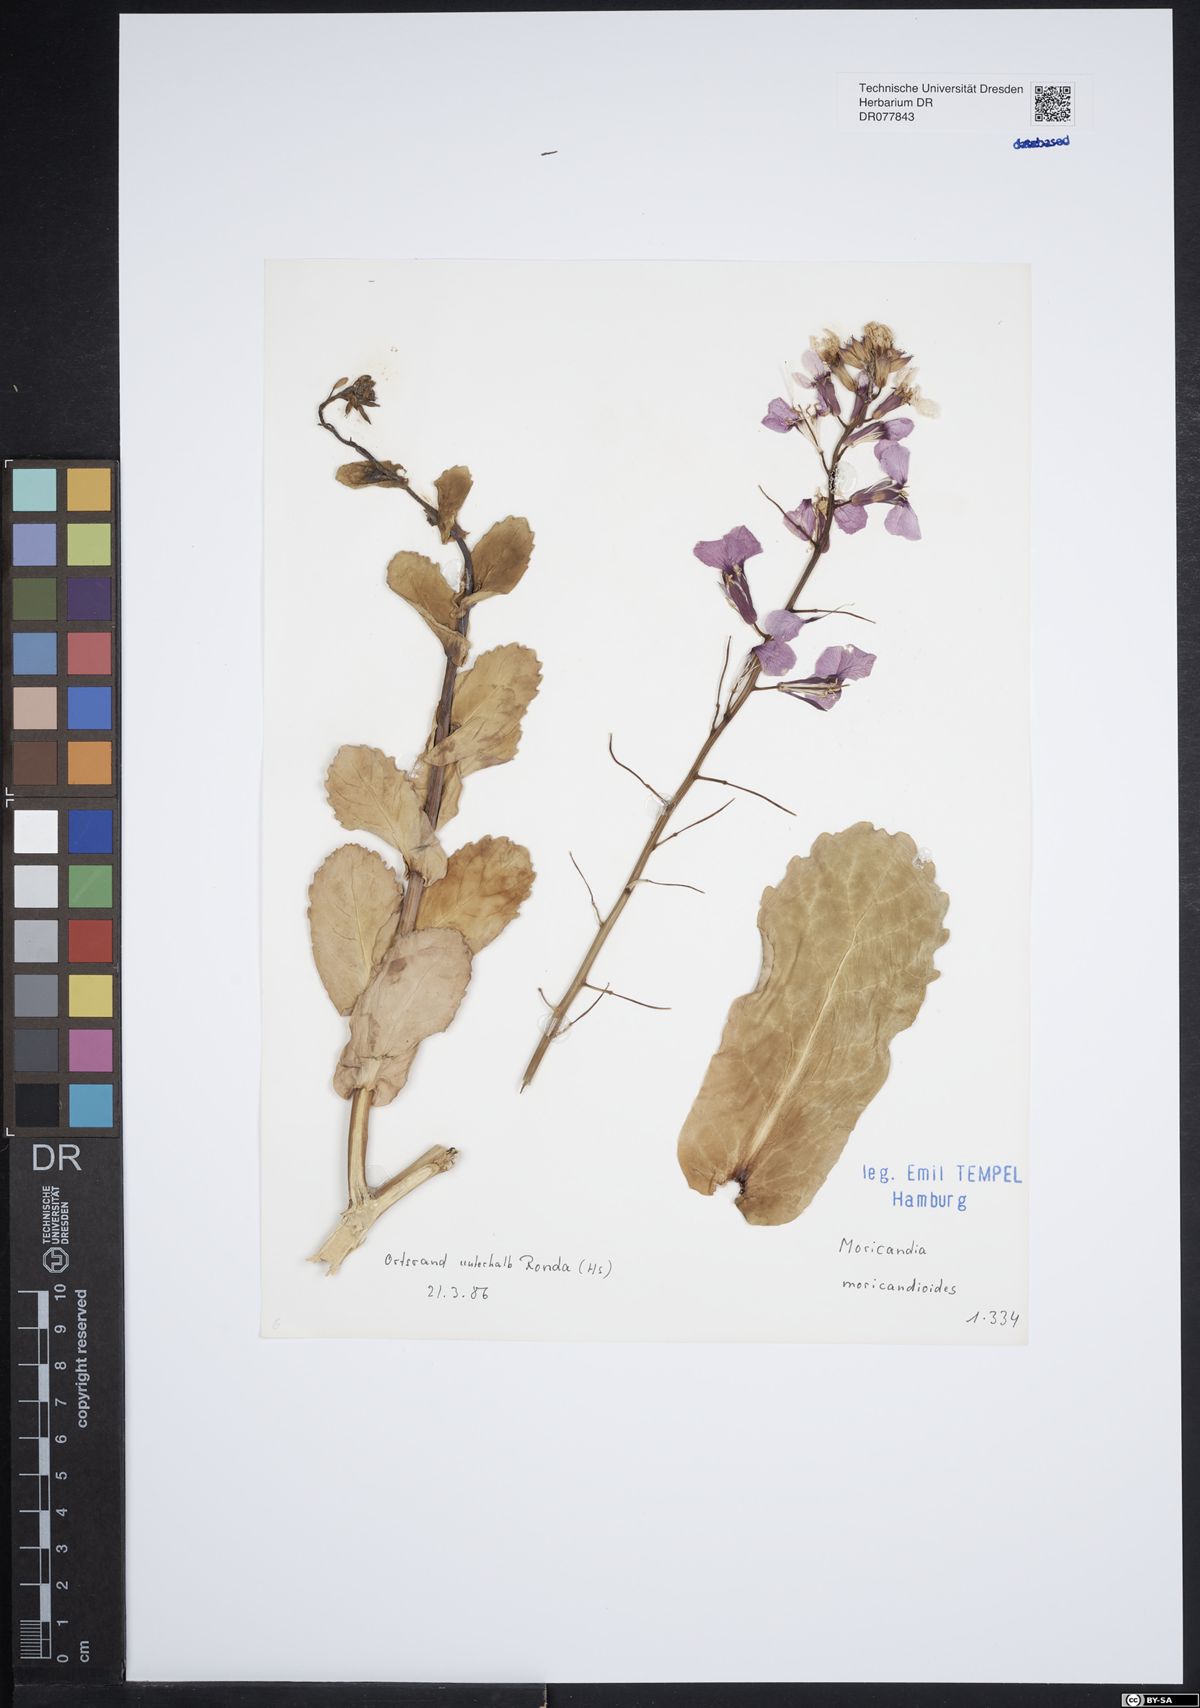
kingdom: Plantae
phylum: Tracheophyta
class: Magnoliopsida
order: Brassicales
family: Brassicaceae
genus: Moricandia
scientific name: Moricandia moricandioides
